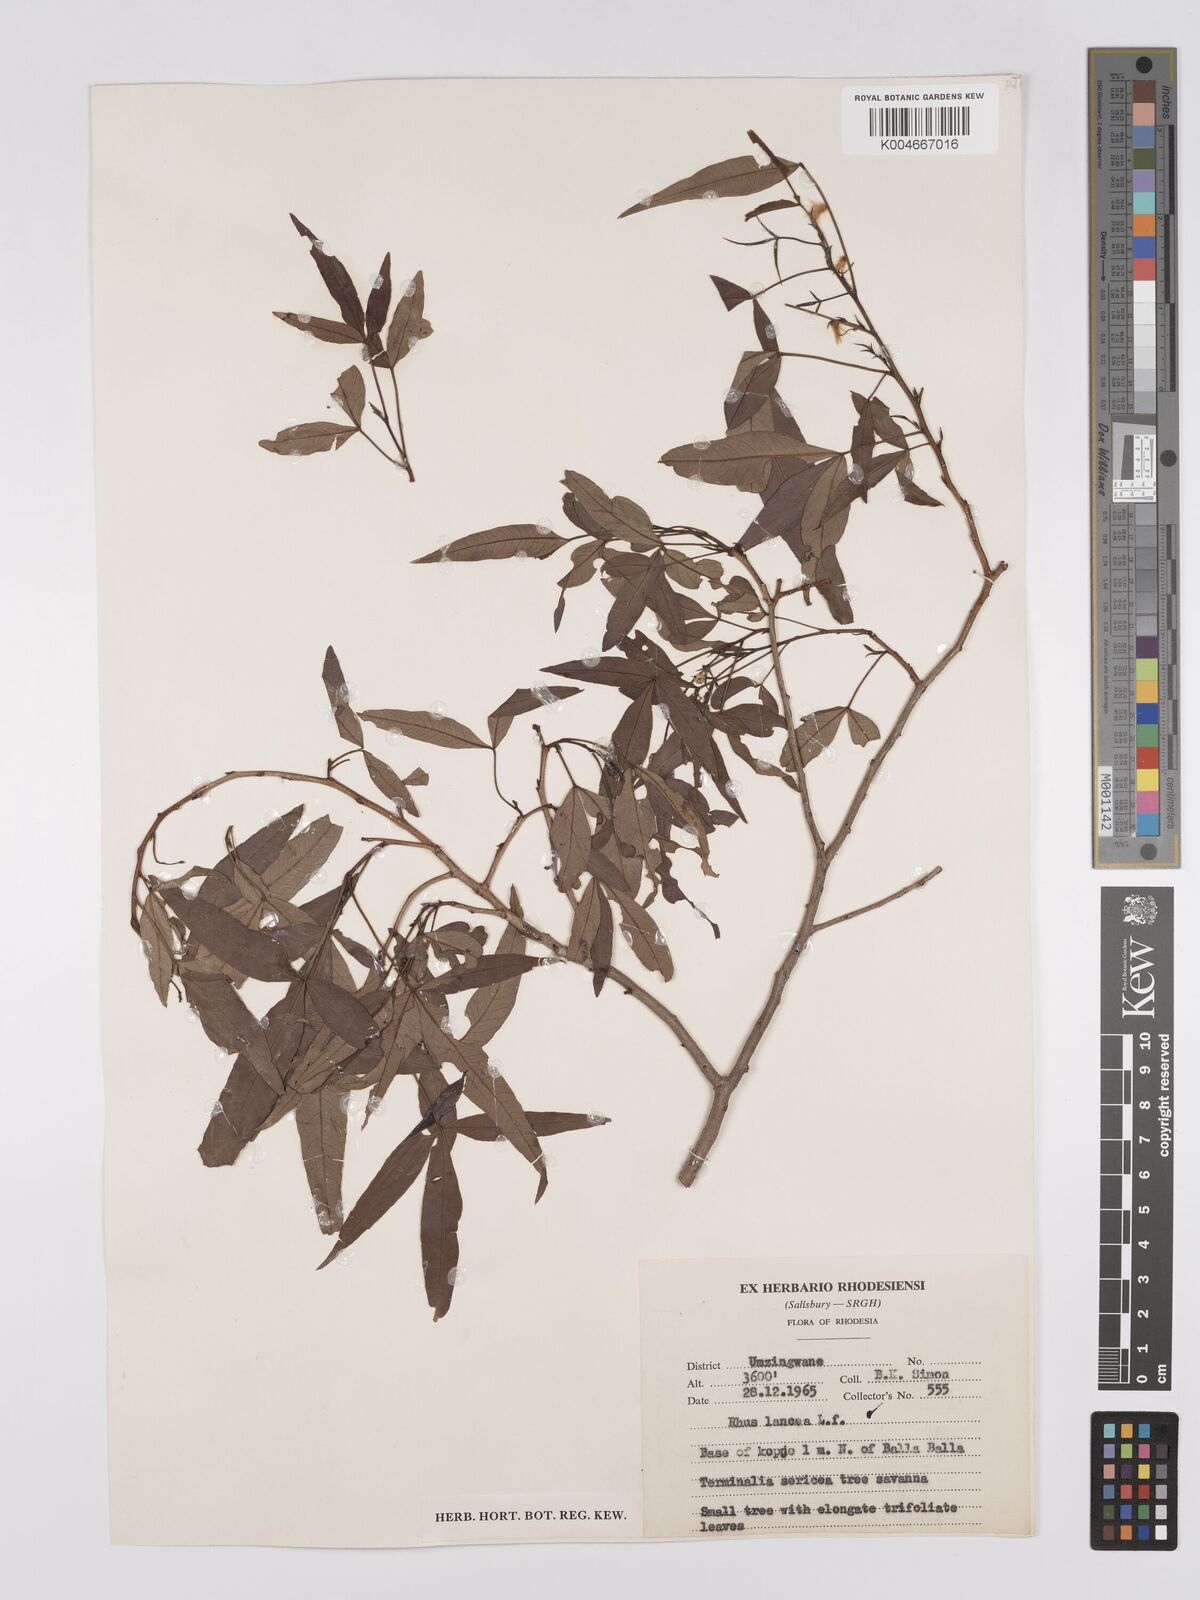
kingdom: Plantae
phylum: Tracheophyta
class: Magnoliopsida
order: Sapindales
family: Anacardiaceae
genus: Searsia
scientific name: Searsia leptodictya
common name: Mountain karee
